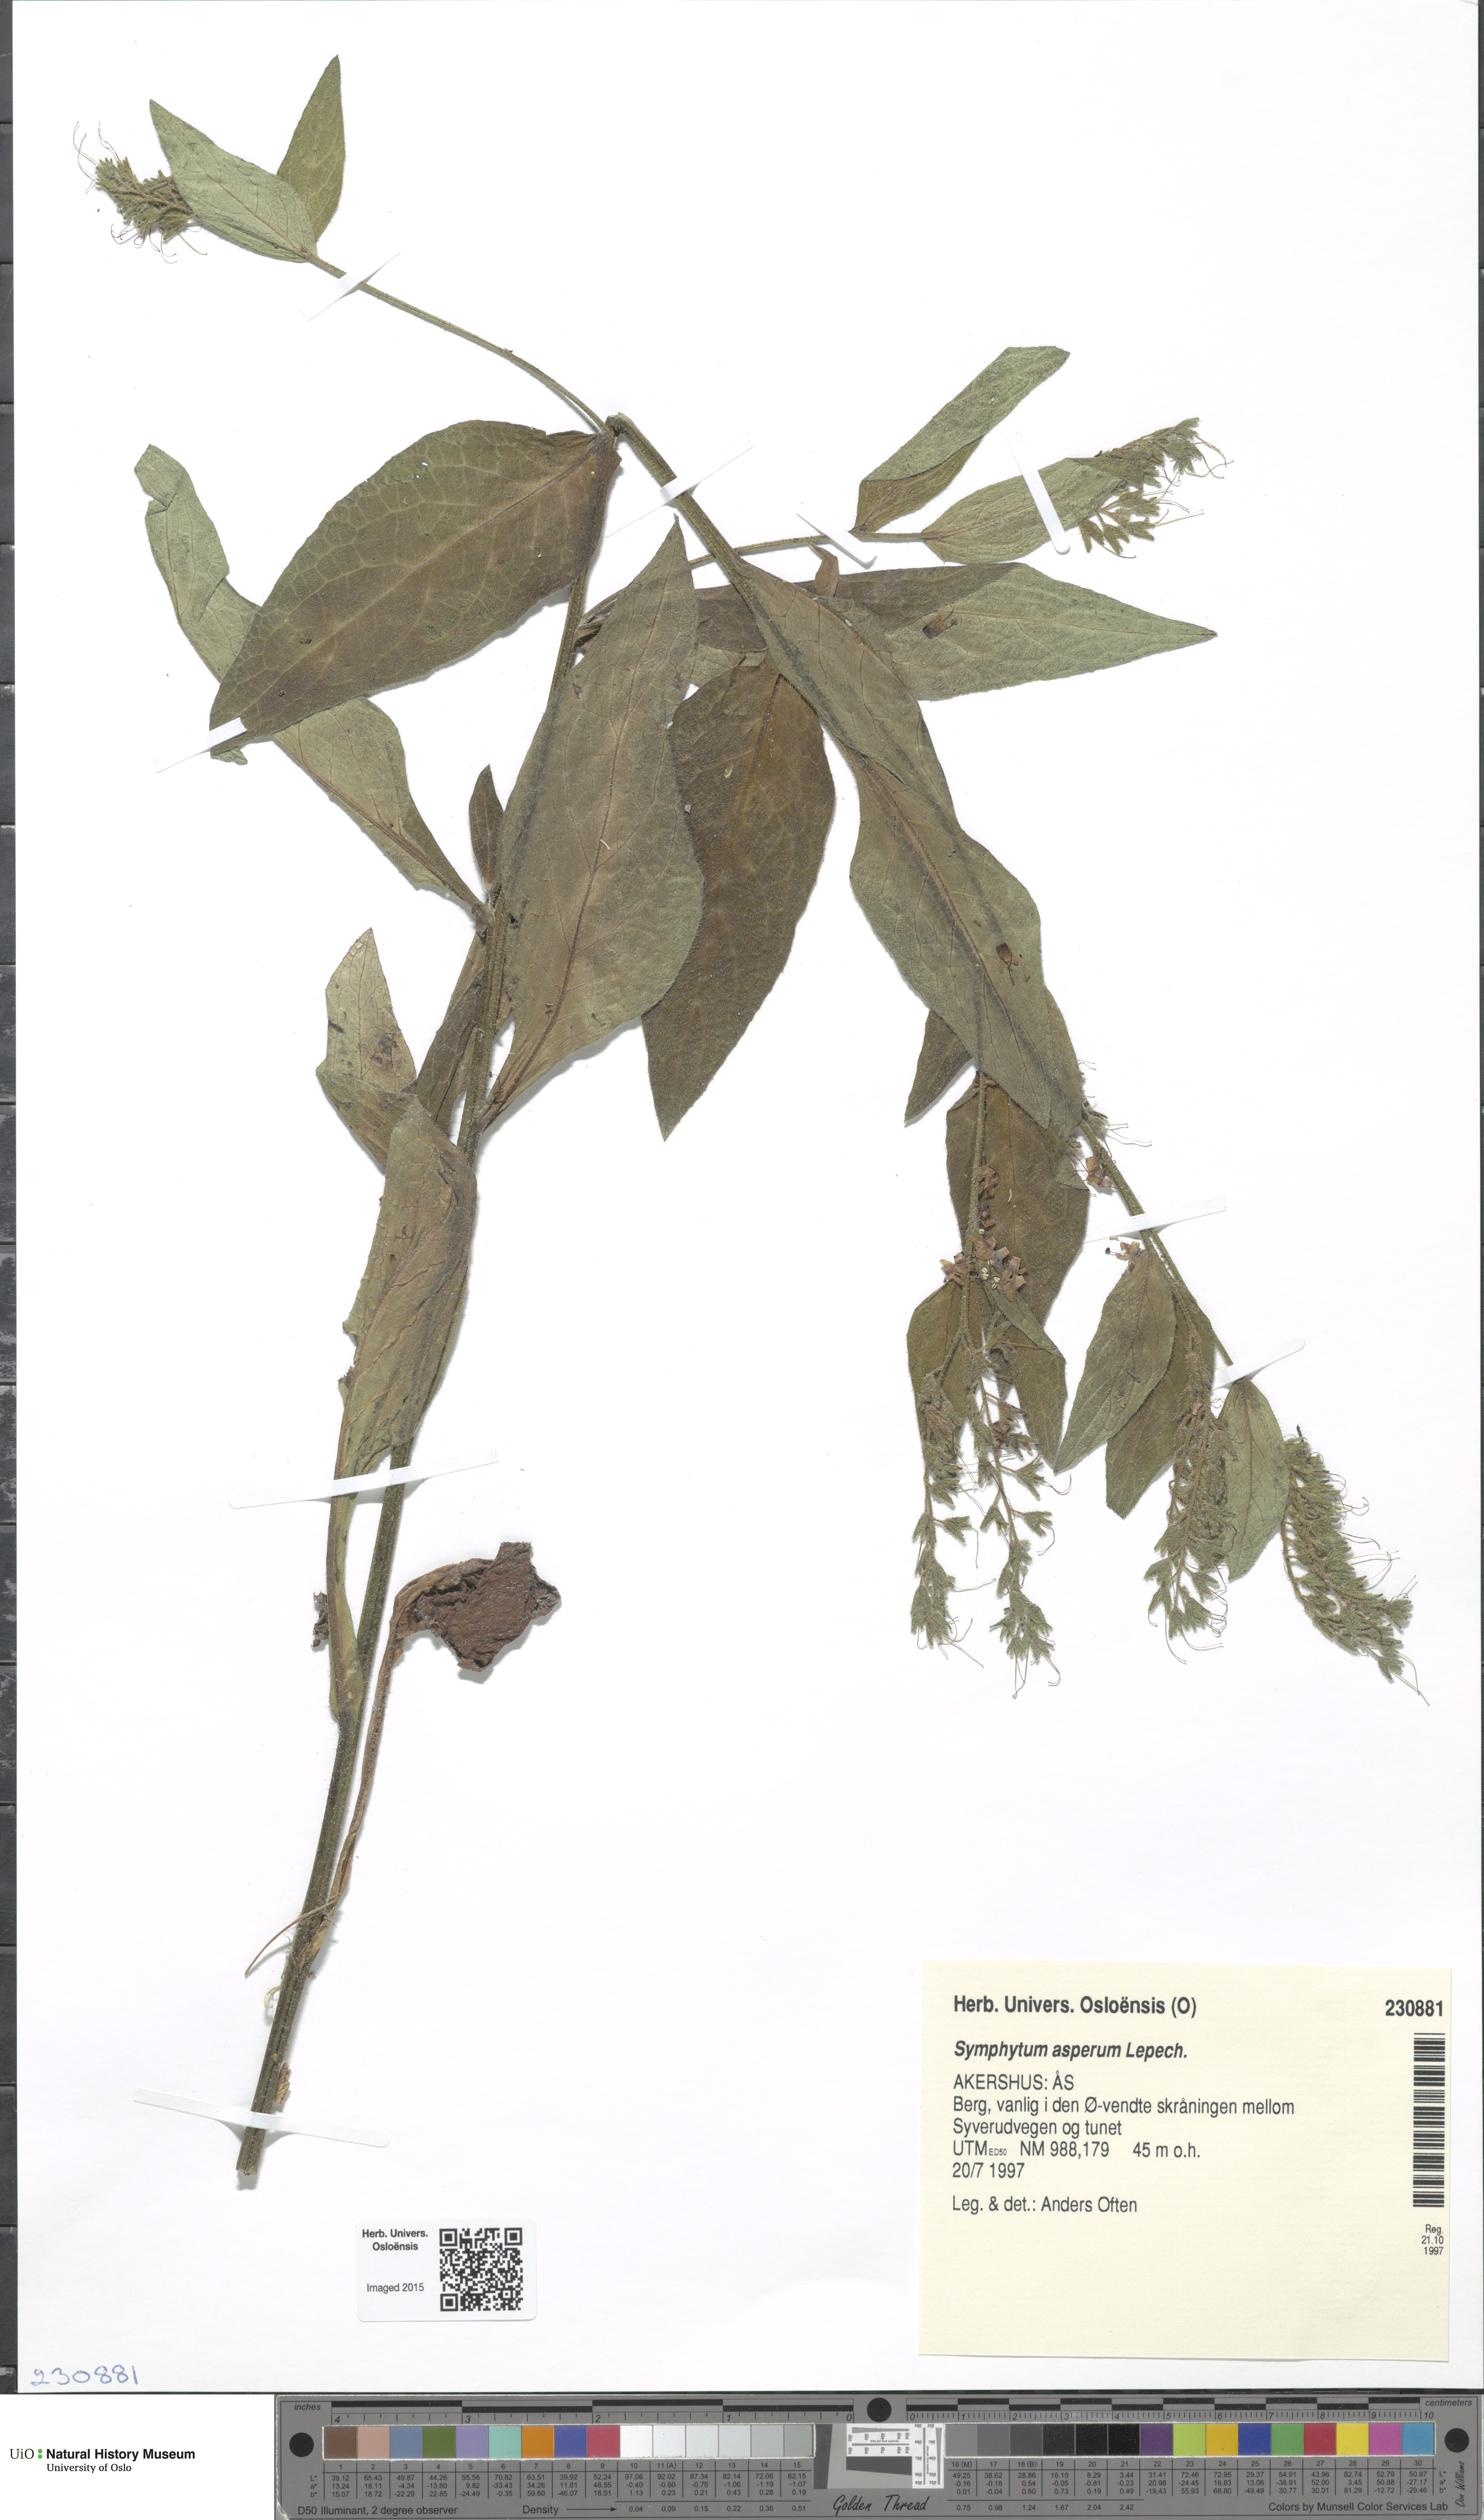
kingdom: Plantae
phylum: Tracheophyta
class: Magnoliopsida
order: Boraginales
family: Boraginaceae
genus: Symphytum
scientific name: Symphytum asperum
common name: Prickly comfrey
